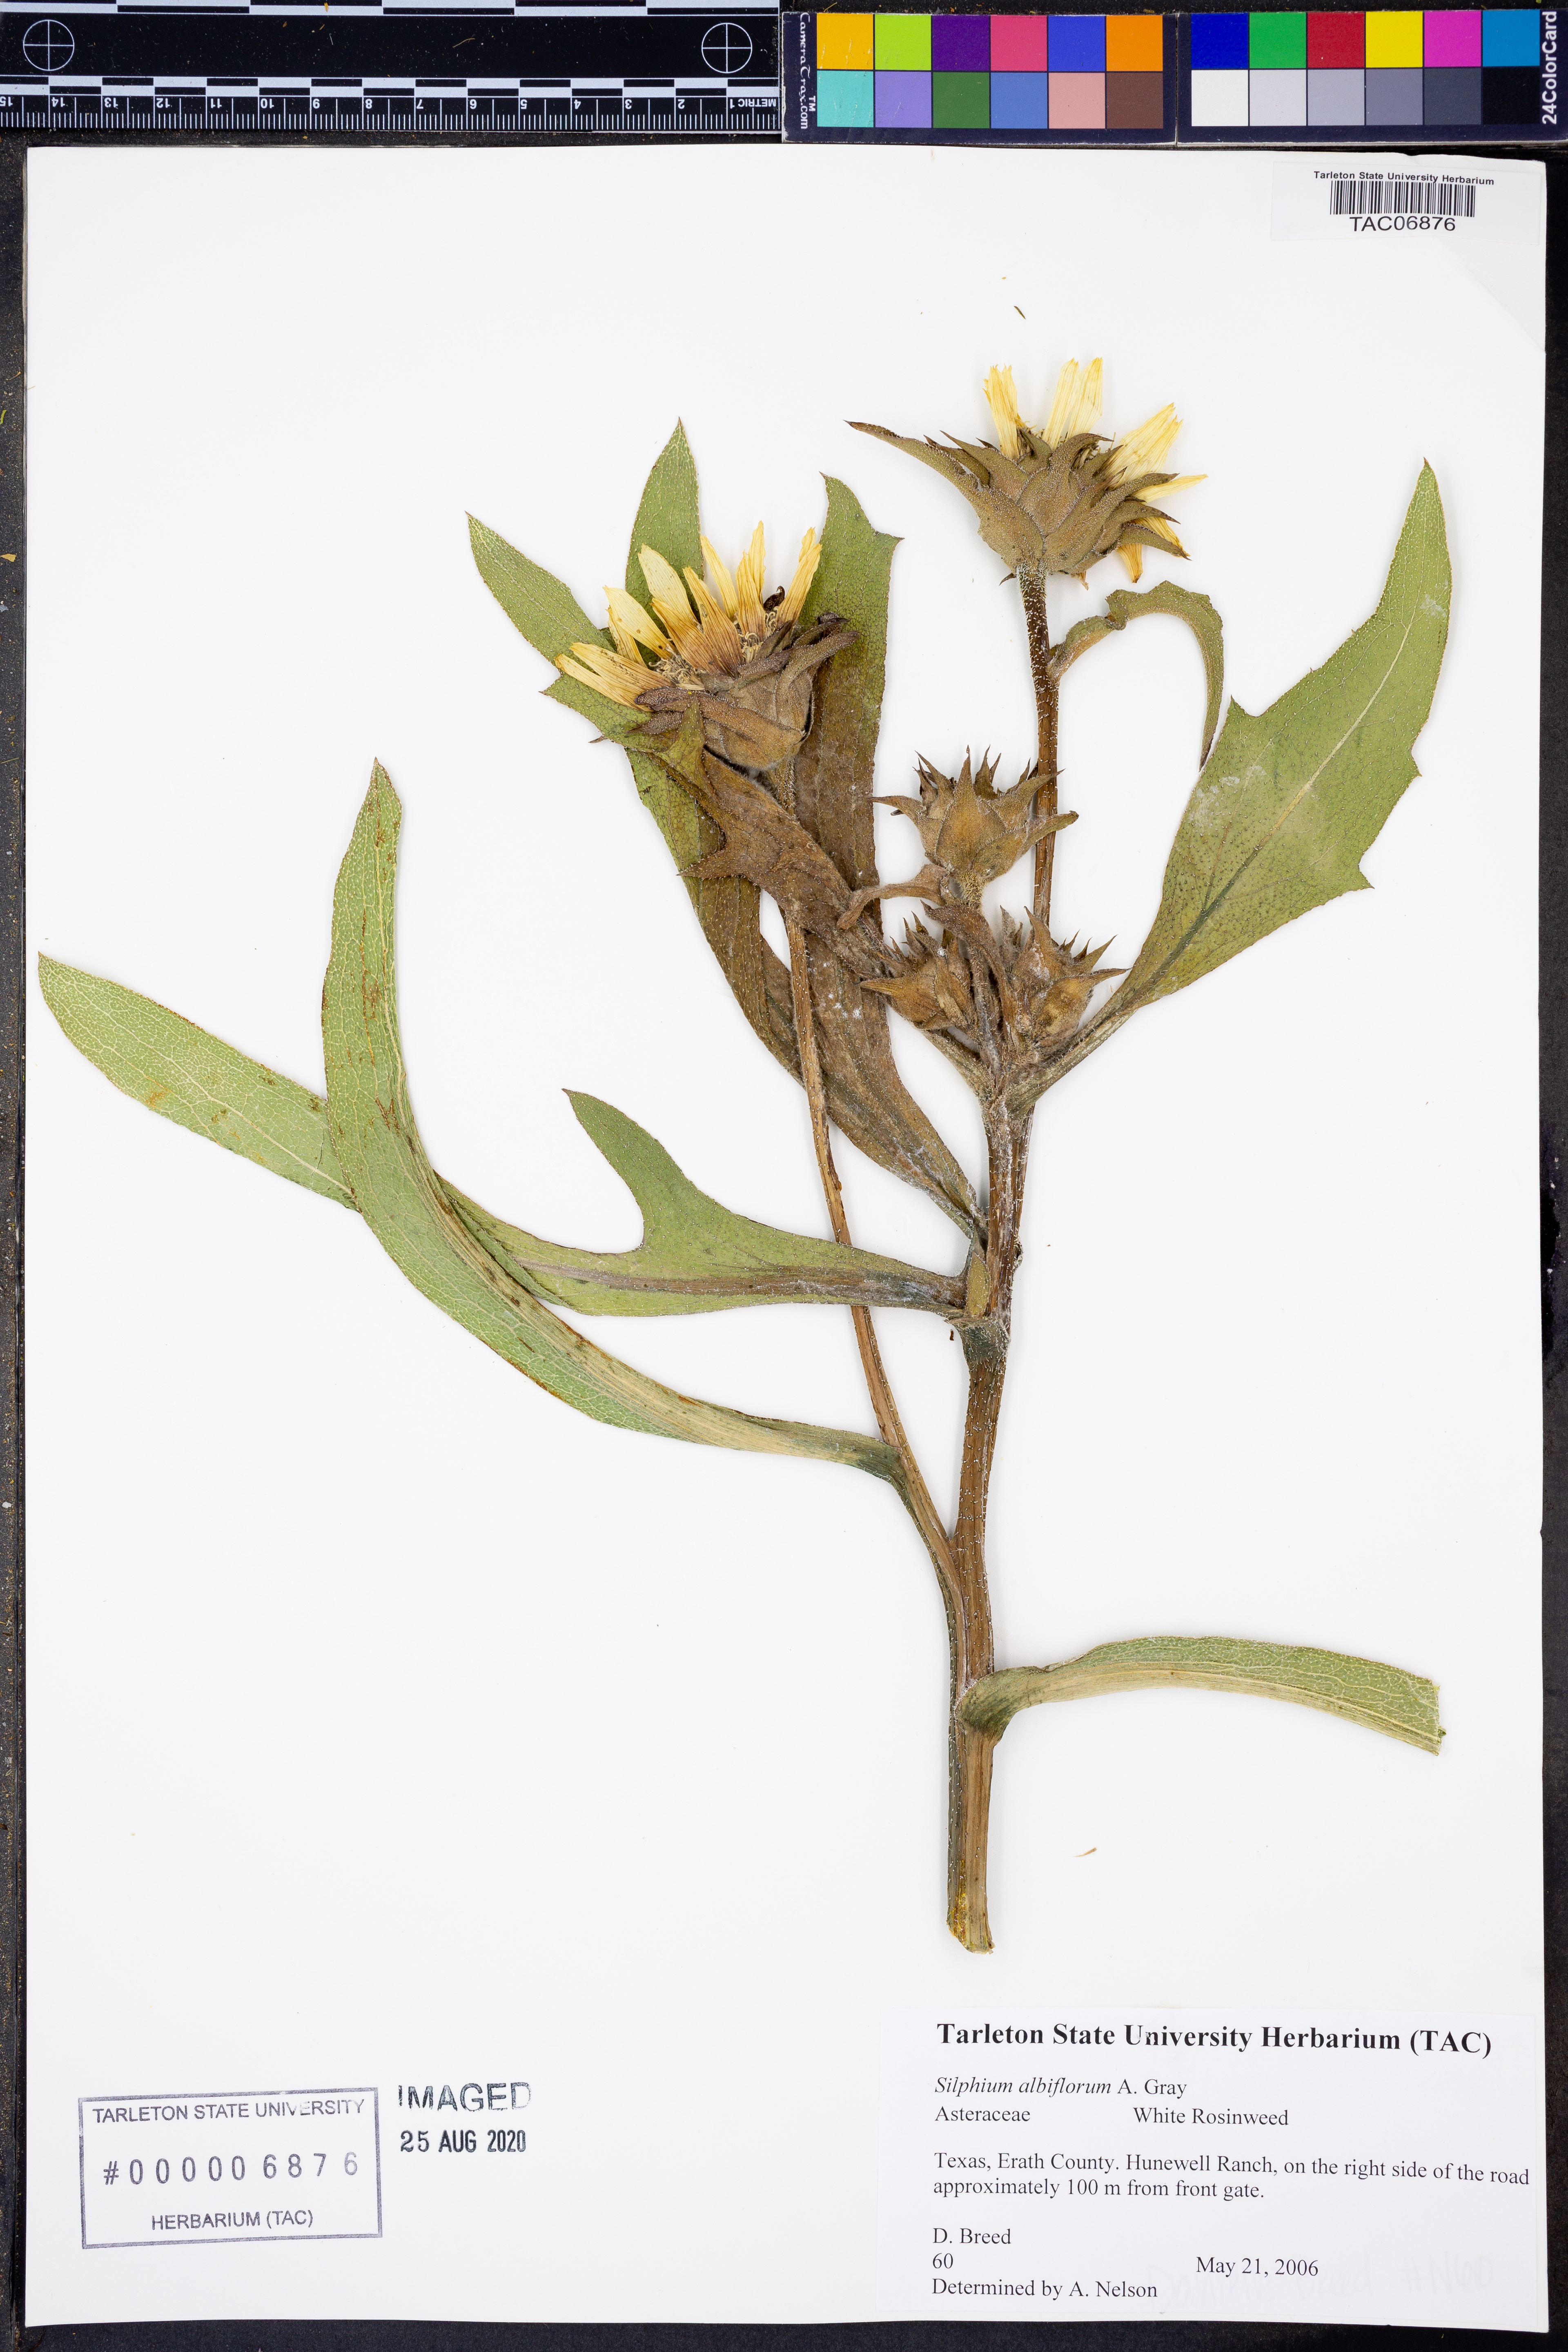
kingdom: Plantae
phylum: Tracheophyta
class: Magnoliopsida
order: Asterales
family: Asteraceae
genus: Silphium
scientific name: Silphium albiflorum
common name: White rosinweed
